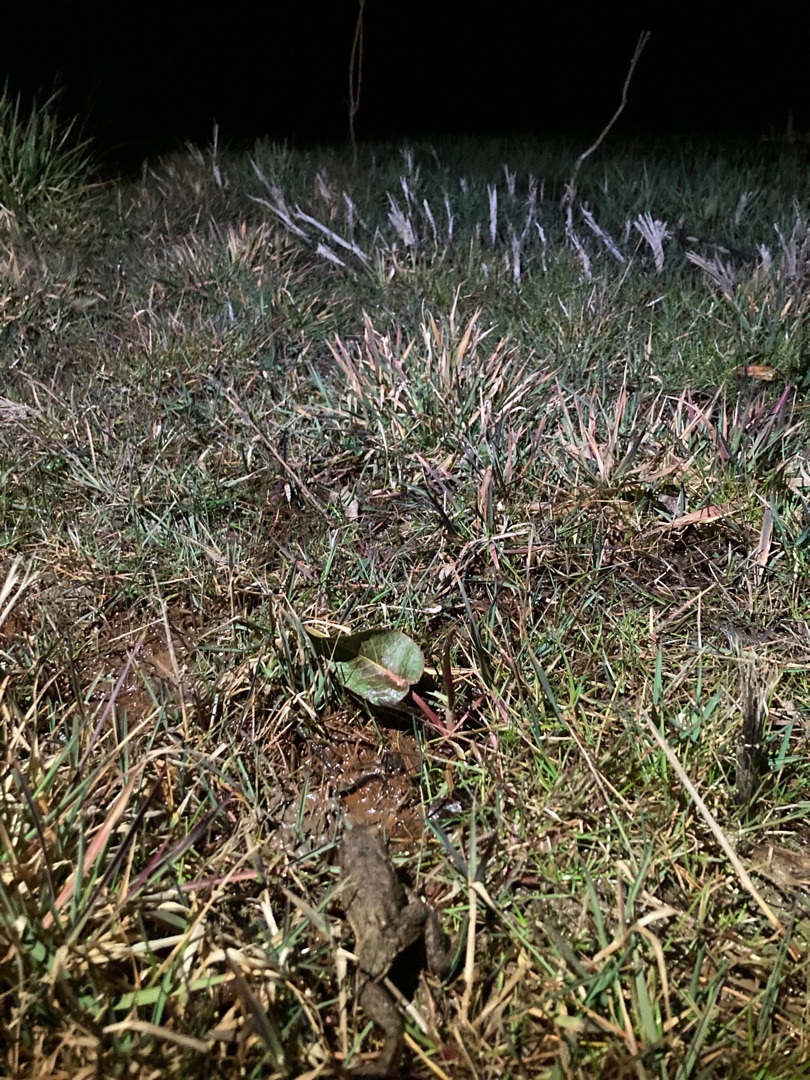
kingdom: Animalia
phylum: Chordata
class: Amphibia
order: Anura
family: Bufonidae
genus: Bufo
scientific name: Bufo bufo
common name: Skrubtudse
